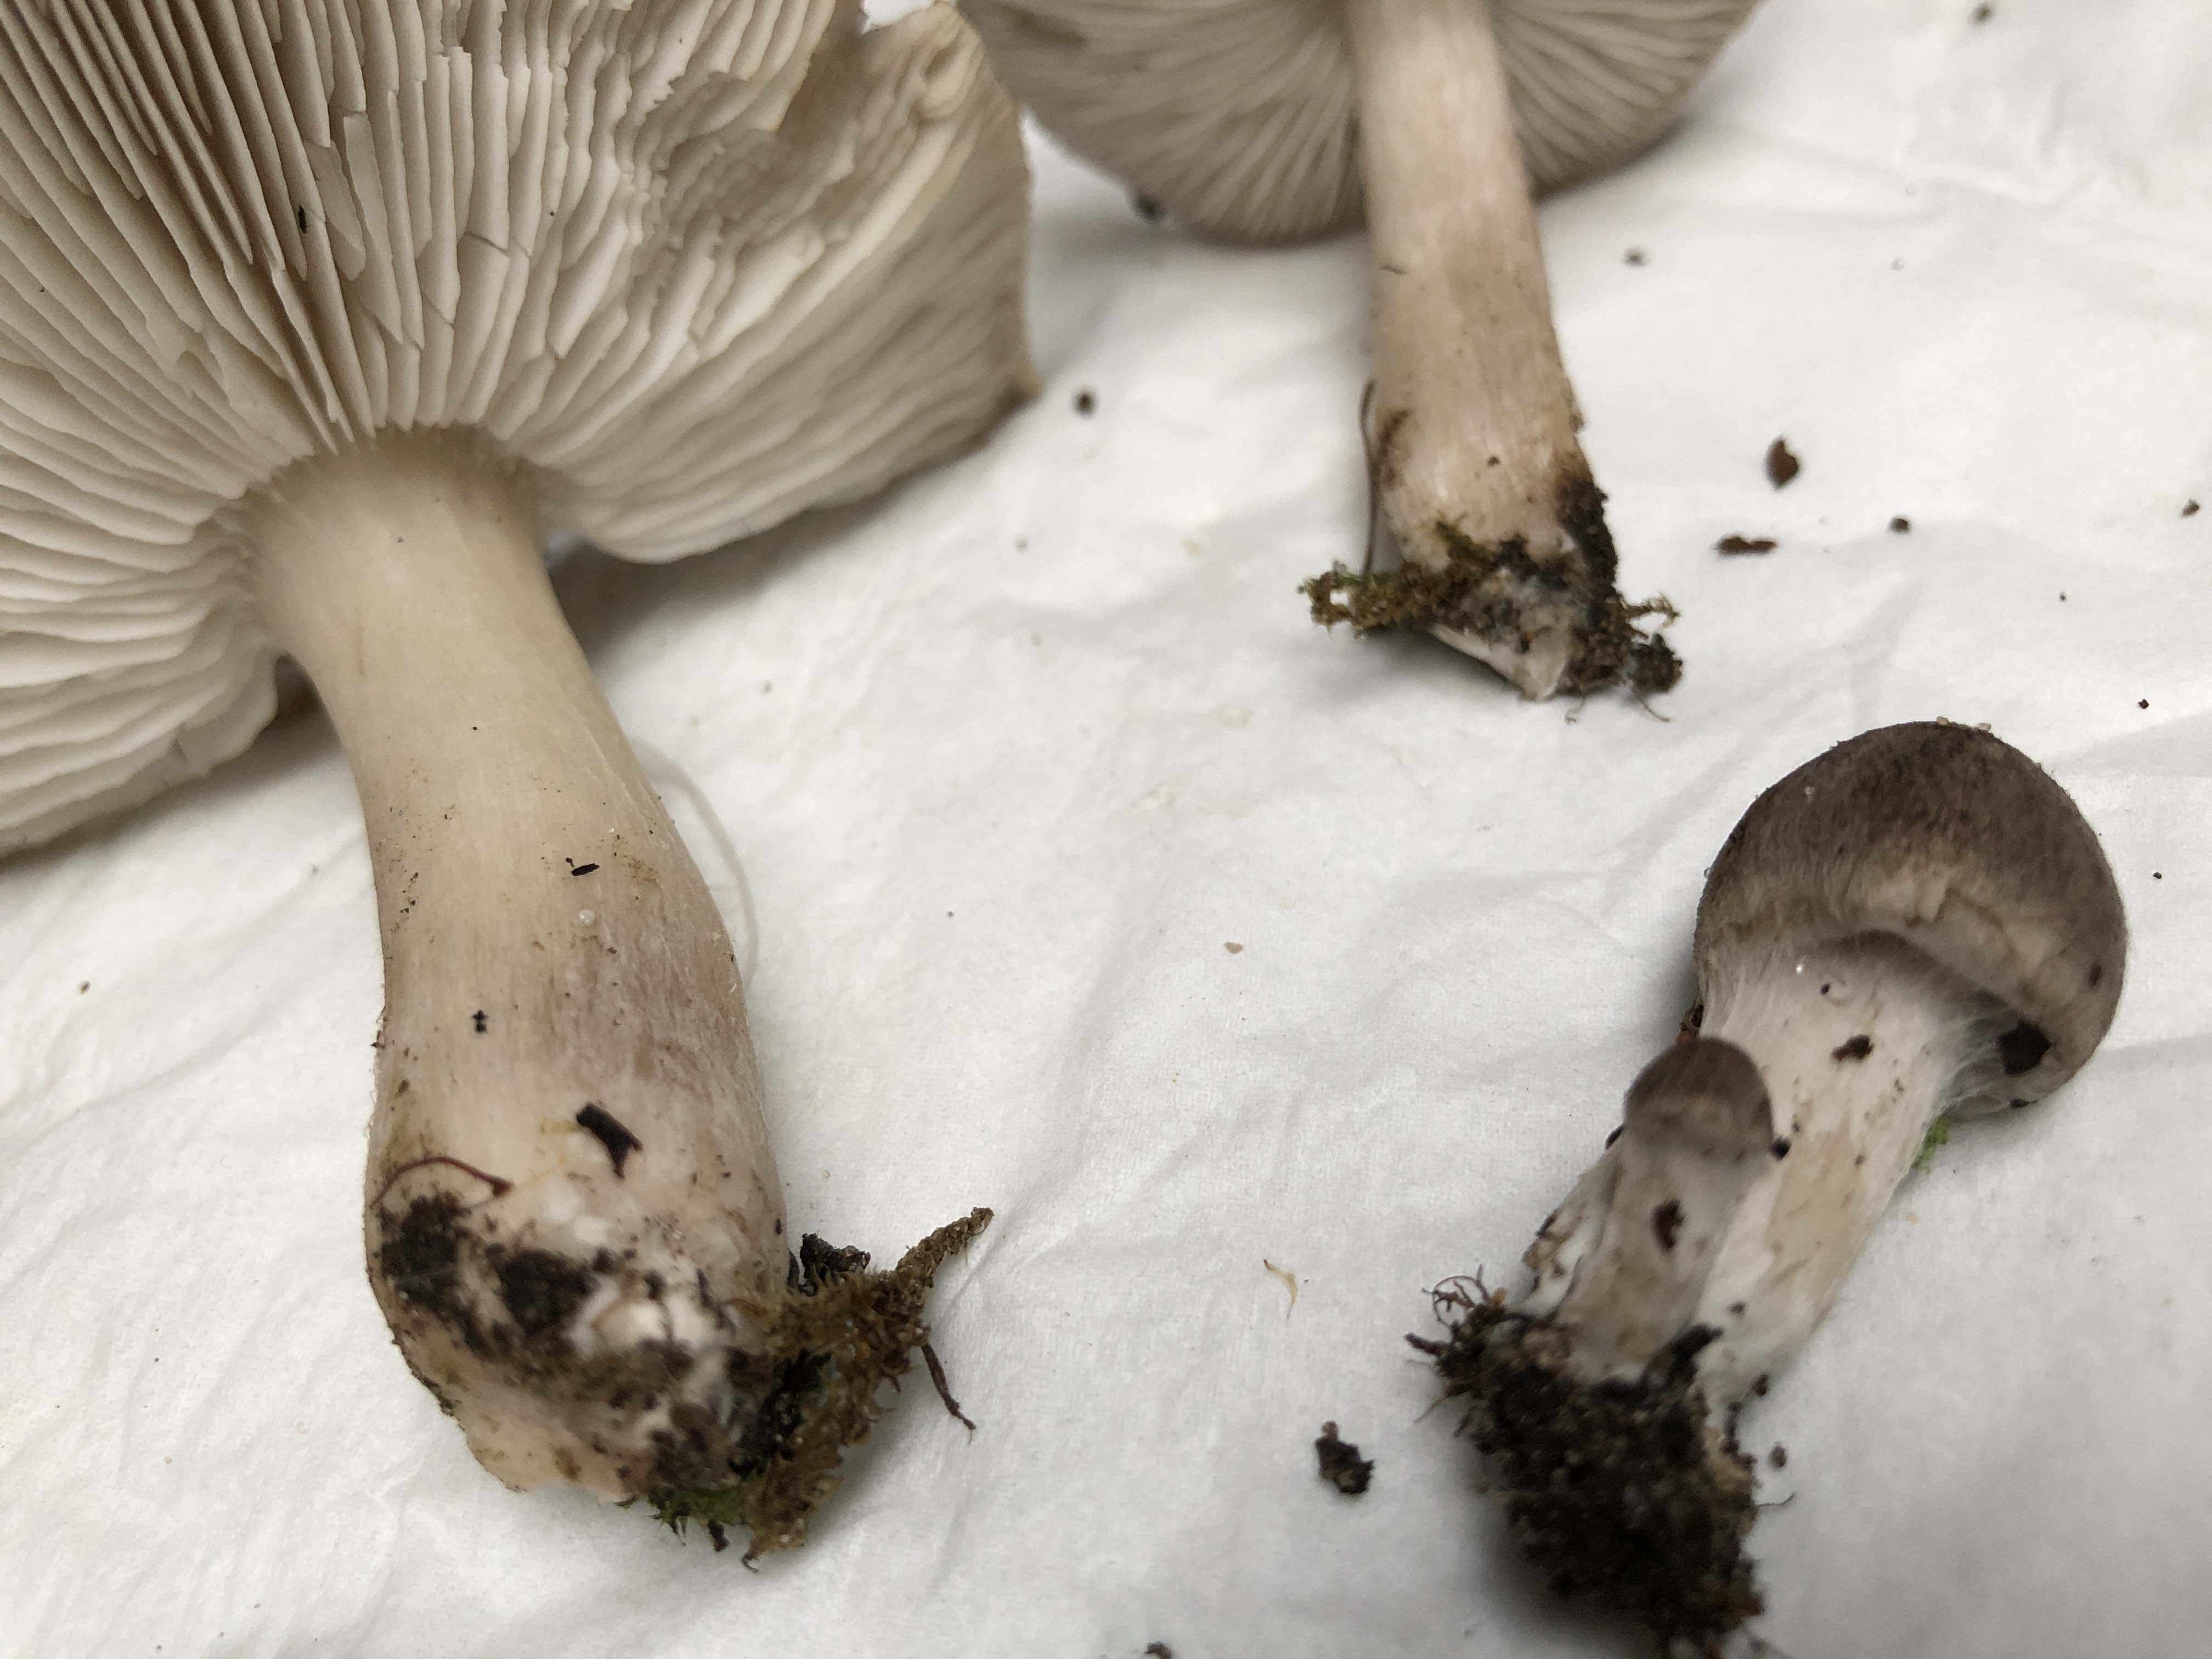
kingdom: Fungi
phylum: Basidiomycota
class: Agaricomycetes
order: Agaricales
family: Tricholomataceae
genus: Tricholoma
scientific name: Tricholoma scalpturatum
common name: gulplettet ridderhat
